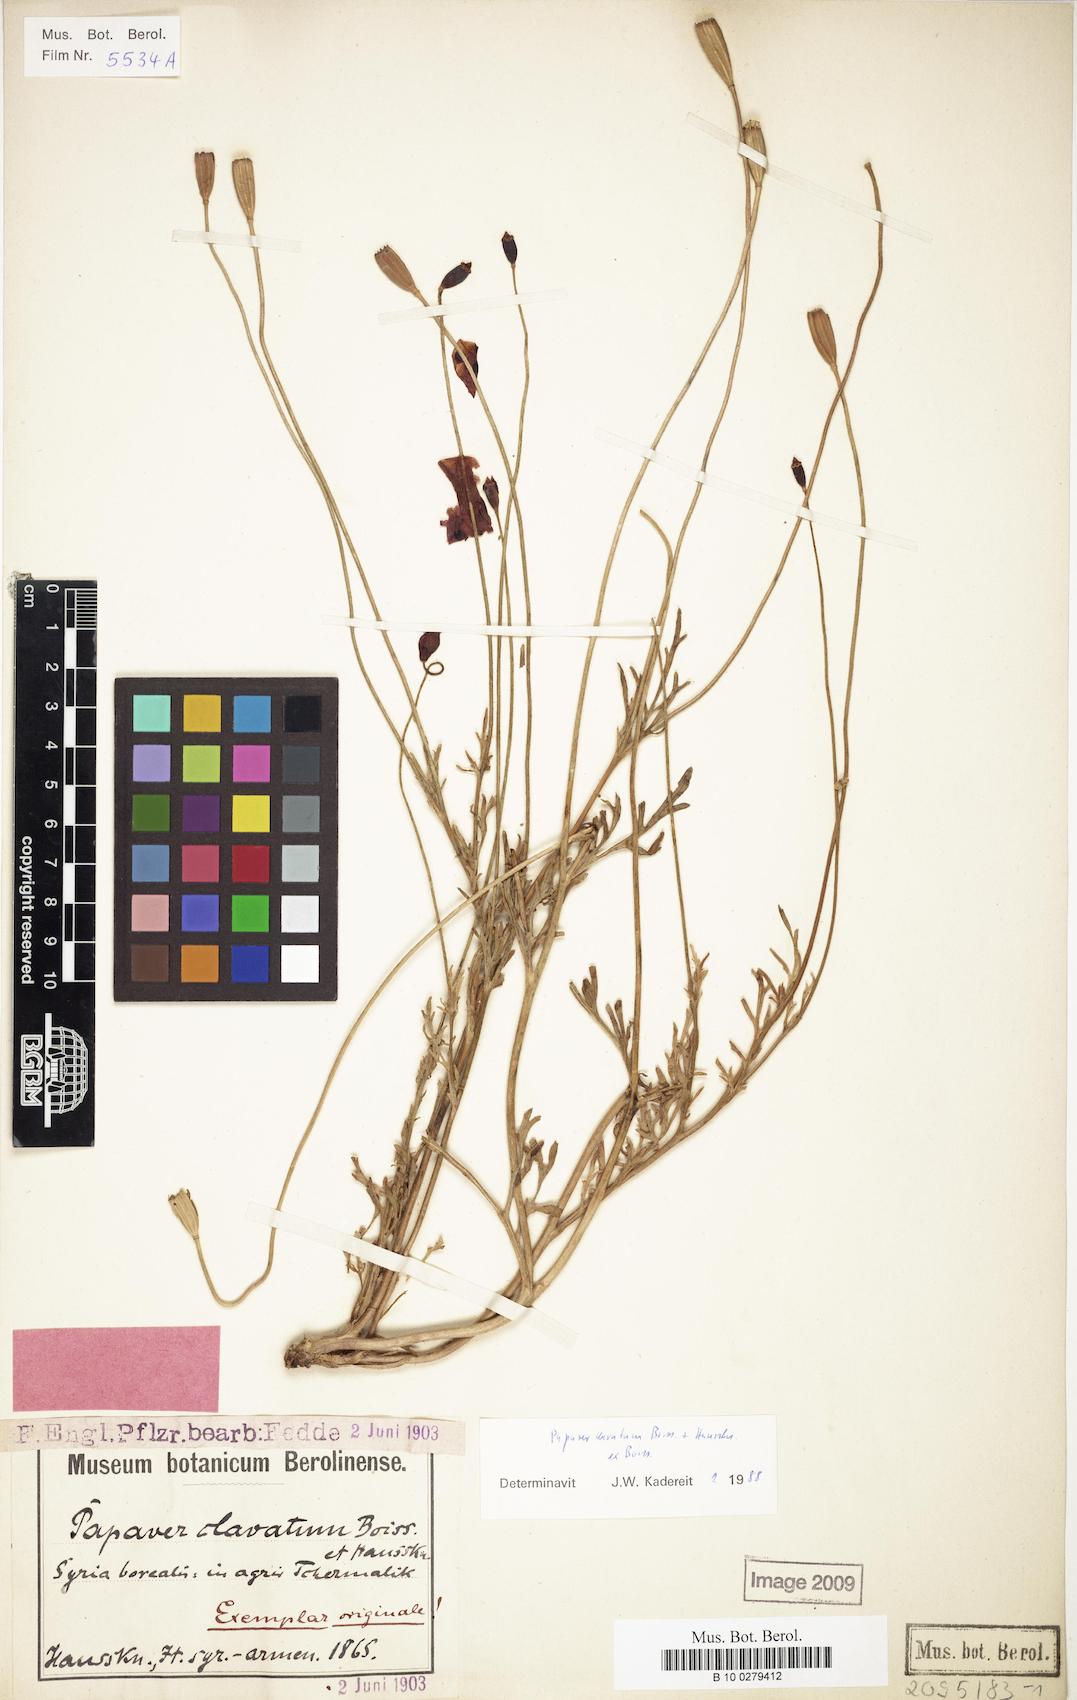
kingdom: Plantae
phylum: Tracheophyta
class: Magnoliopsida
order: Ranunculales
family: Papaveraceae
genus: Papaver
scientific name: Papaver clavatum
